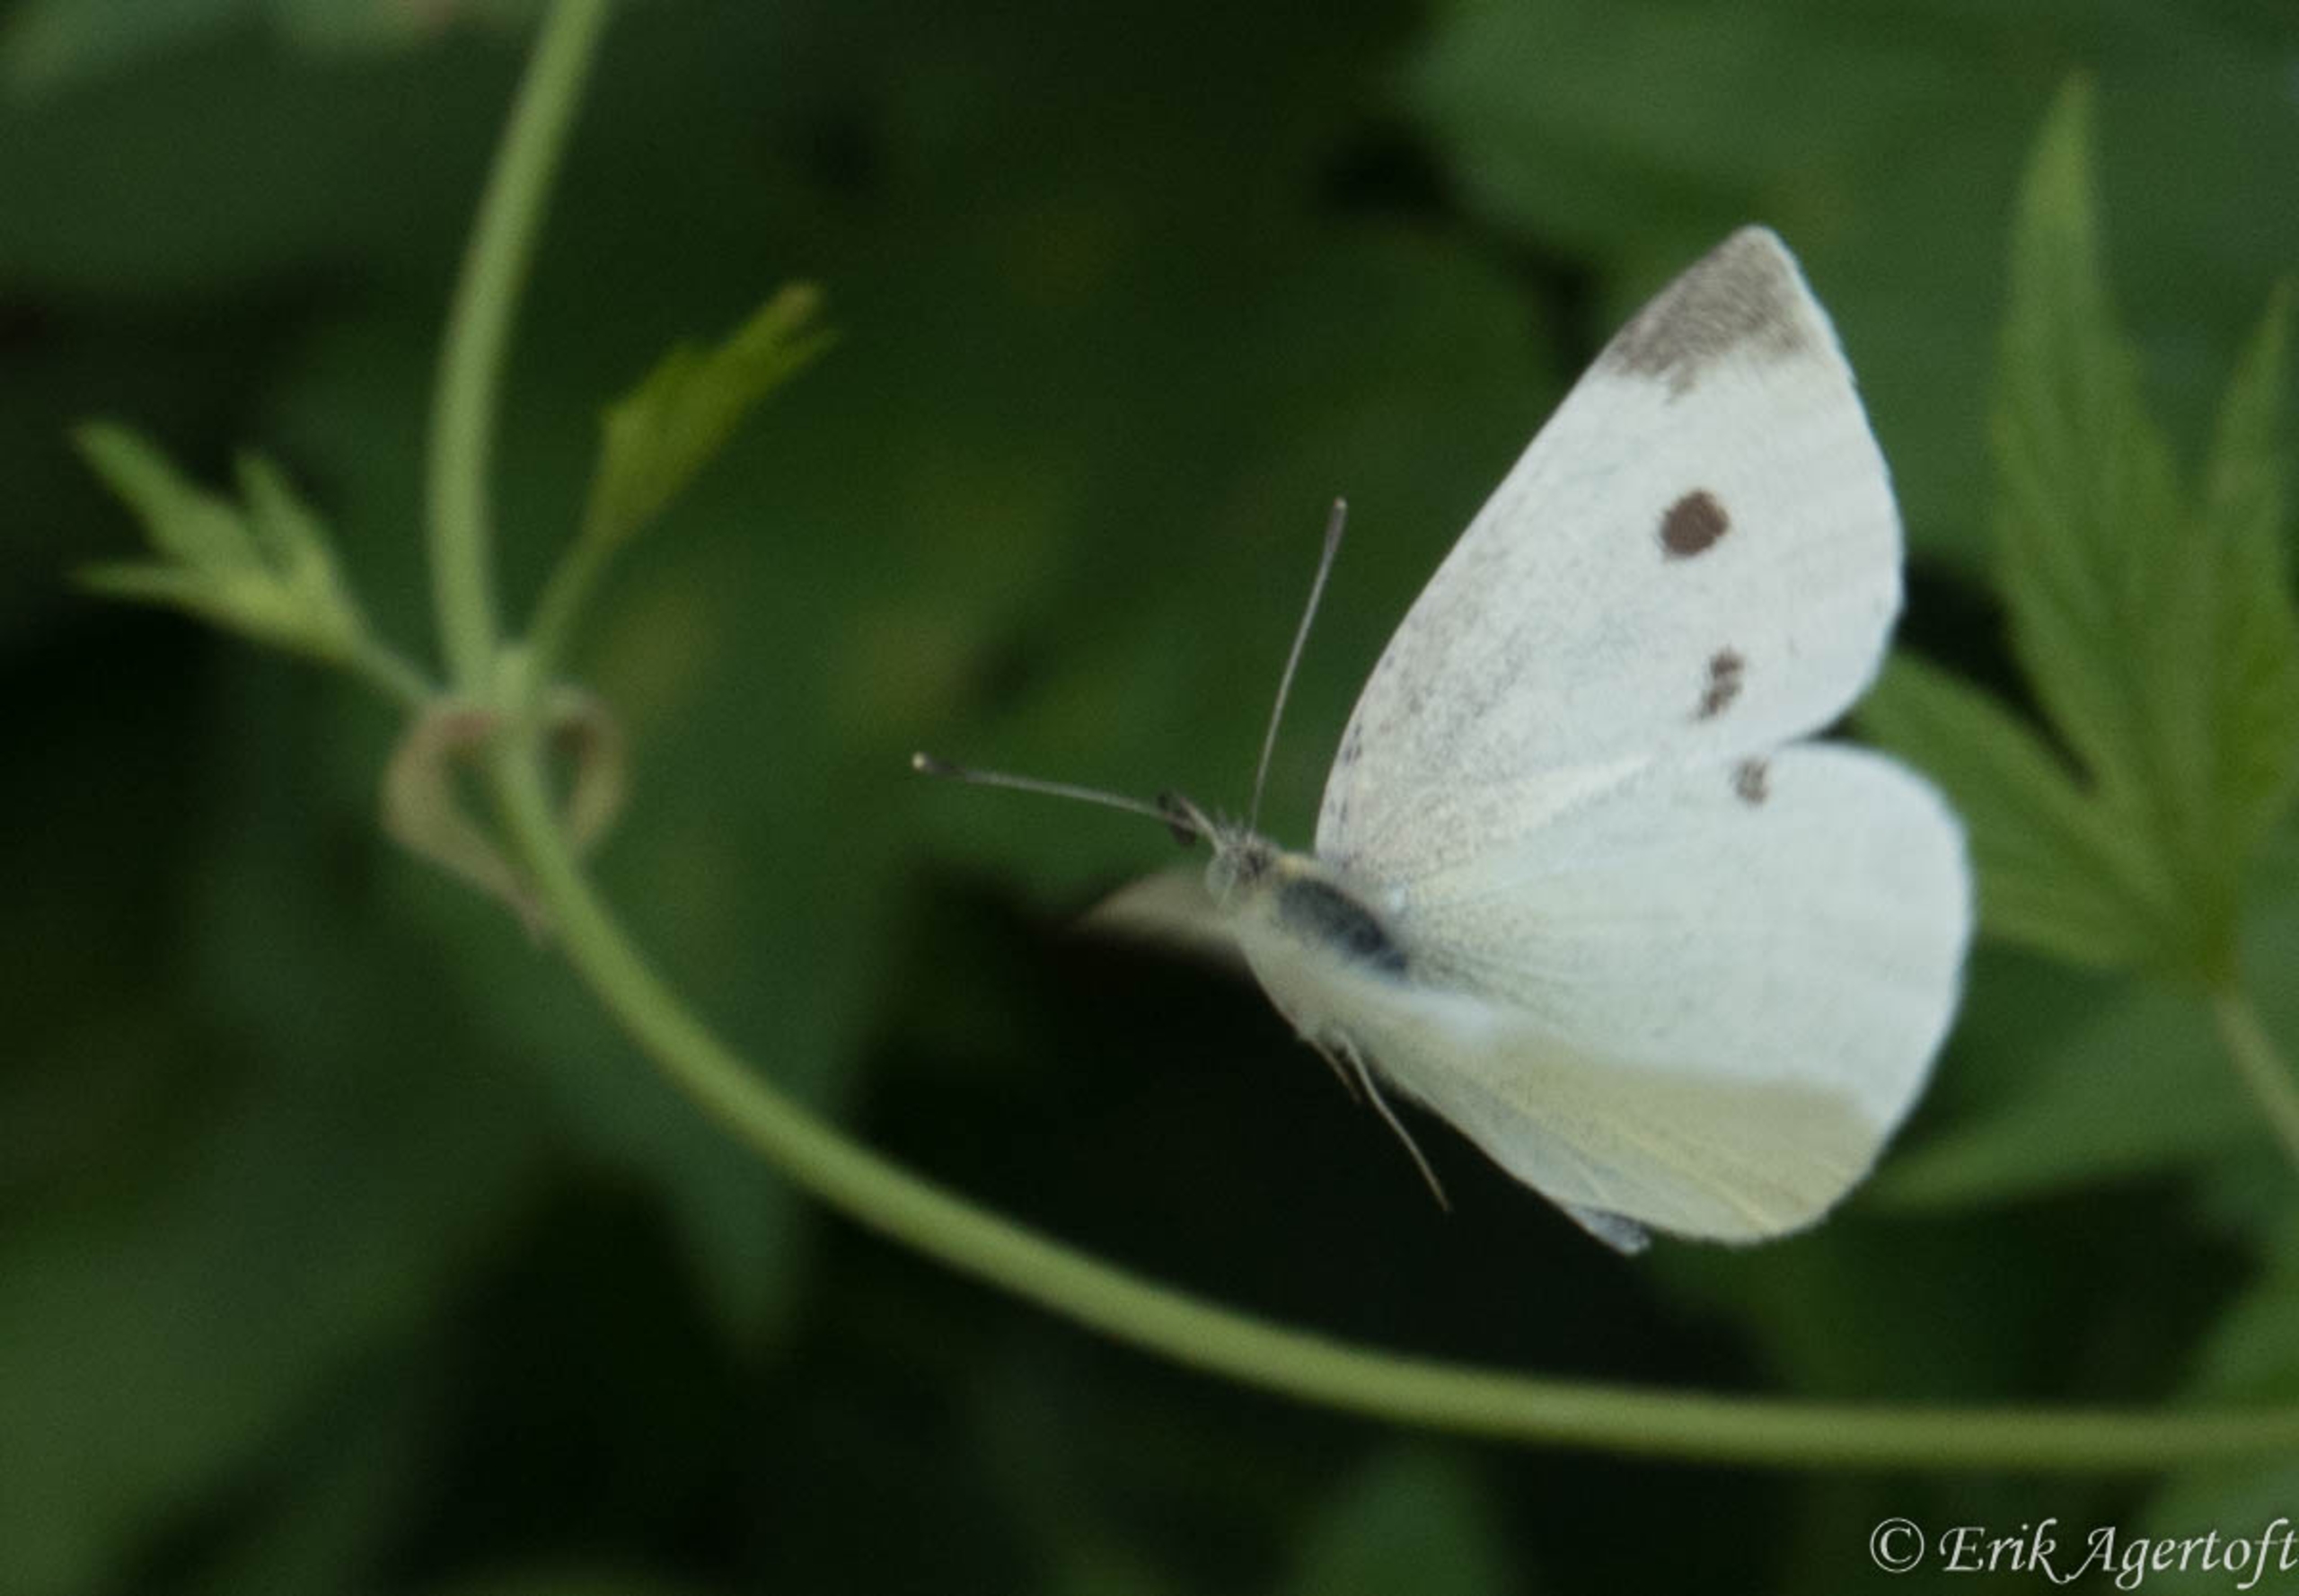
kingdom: Animalia
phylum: Arthropoda
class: Insecta
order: Lepidoptera
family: Pieridae
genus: Pieris
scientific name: Pieris rapae
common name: Lille kålsommerfugl
